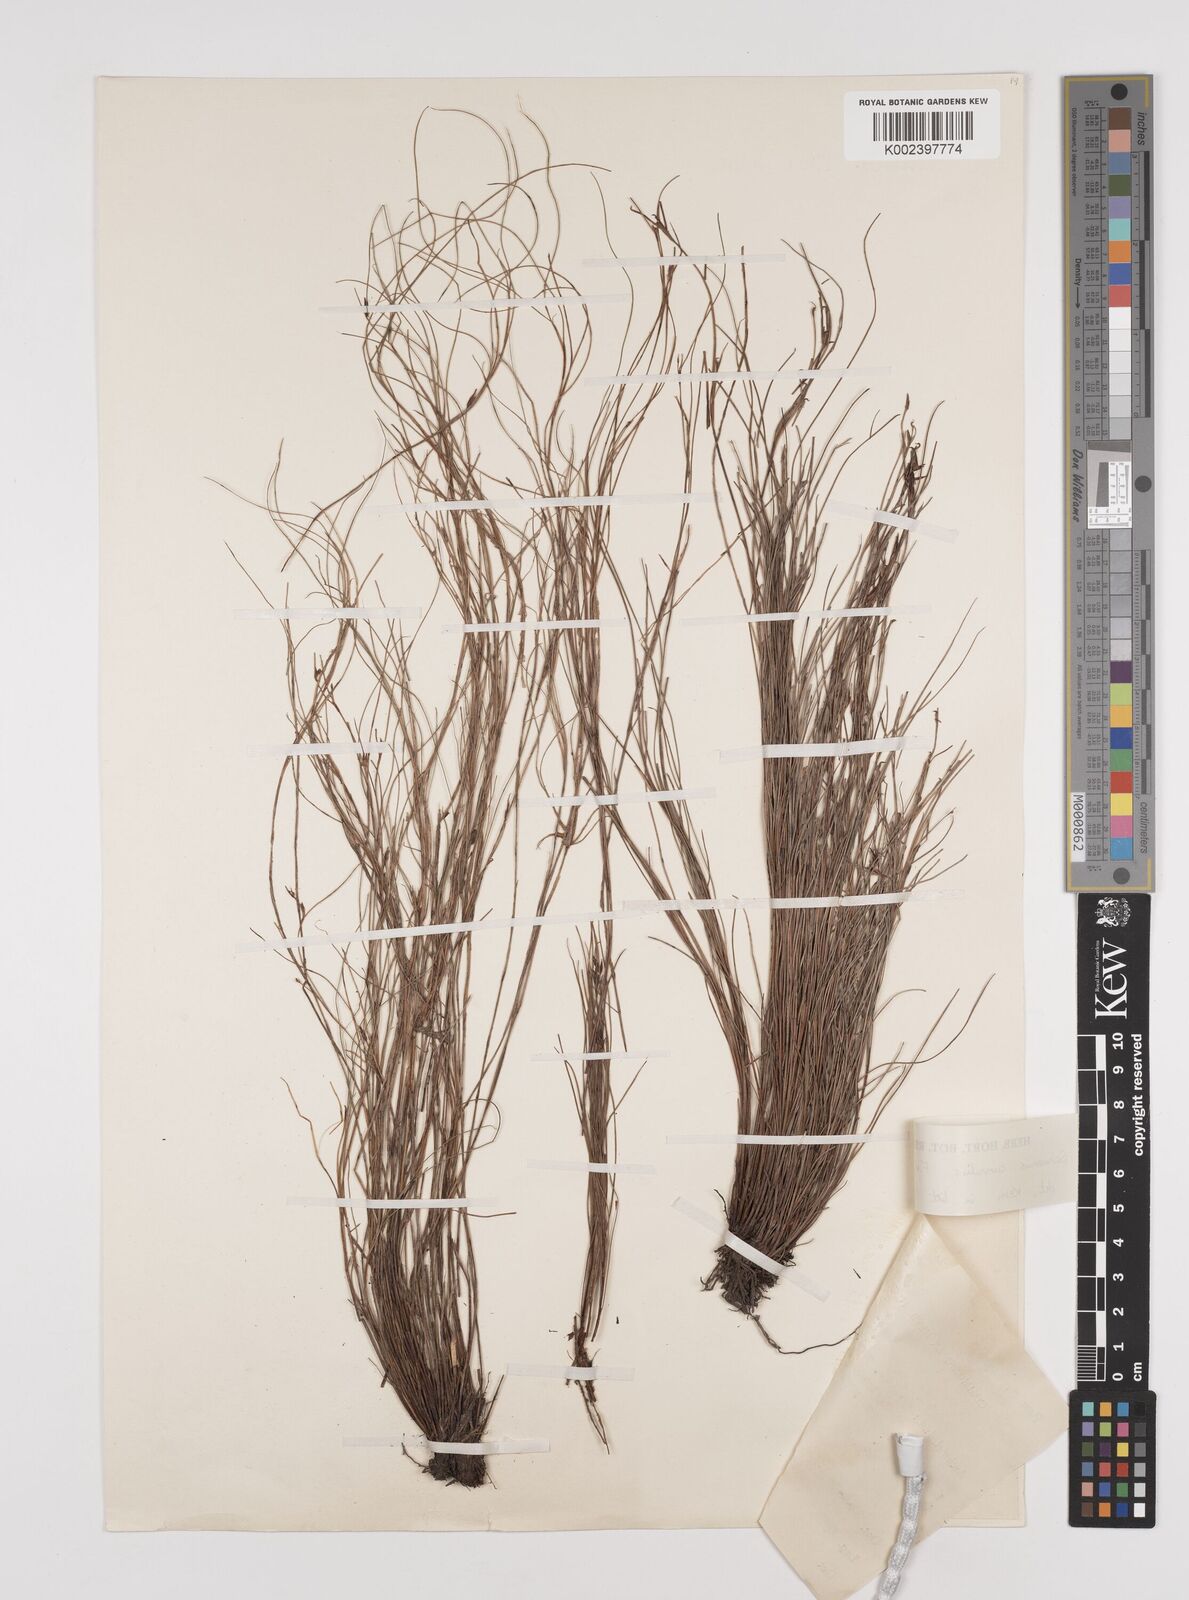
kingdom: Plantae
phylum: Tracheophyta
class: Liliopsida
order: Poales
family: Cyperaceae
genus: Schoenus
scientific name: Schoenus curvulus
